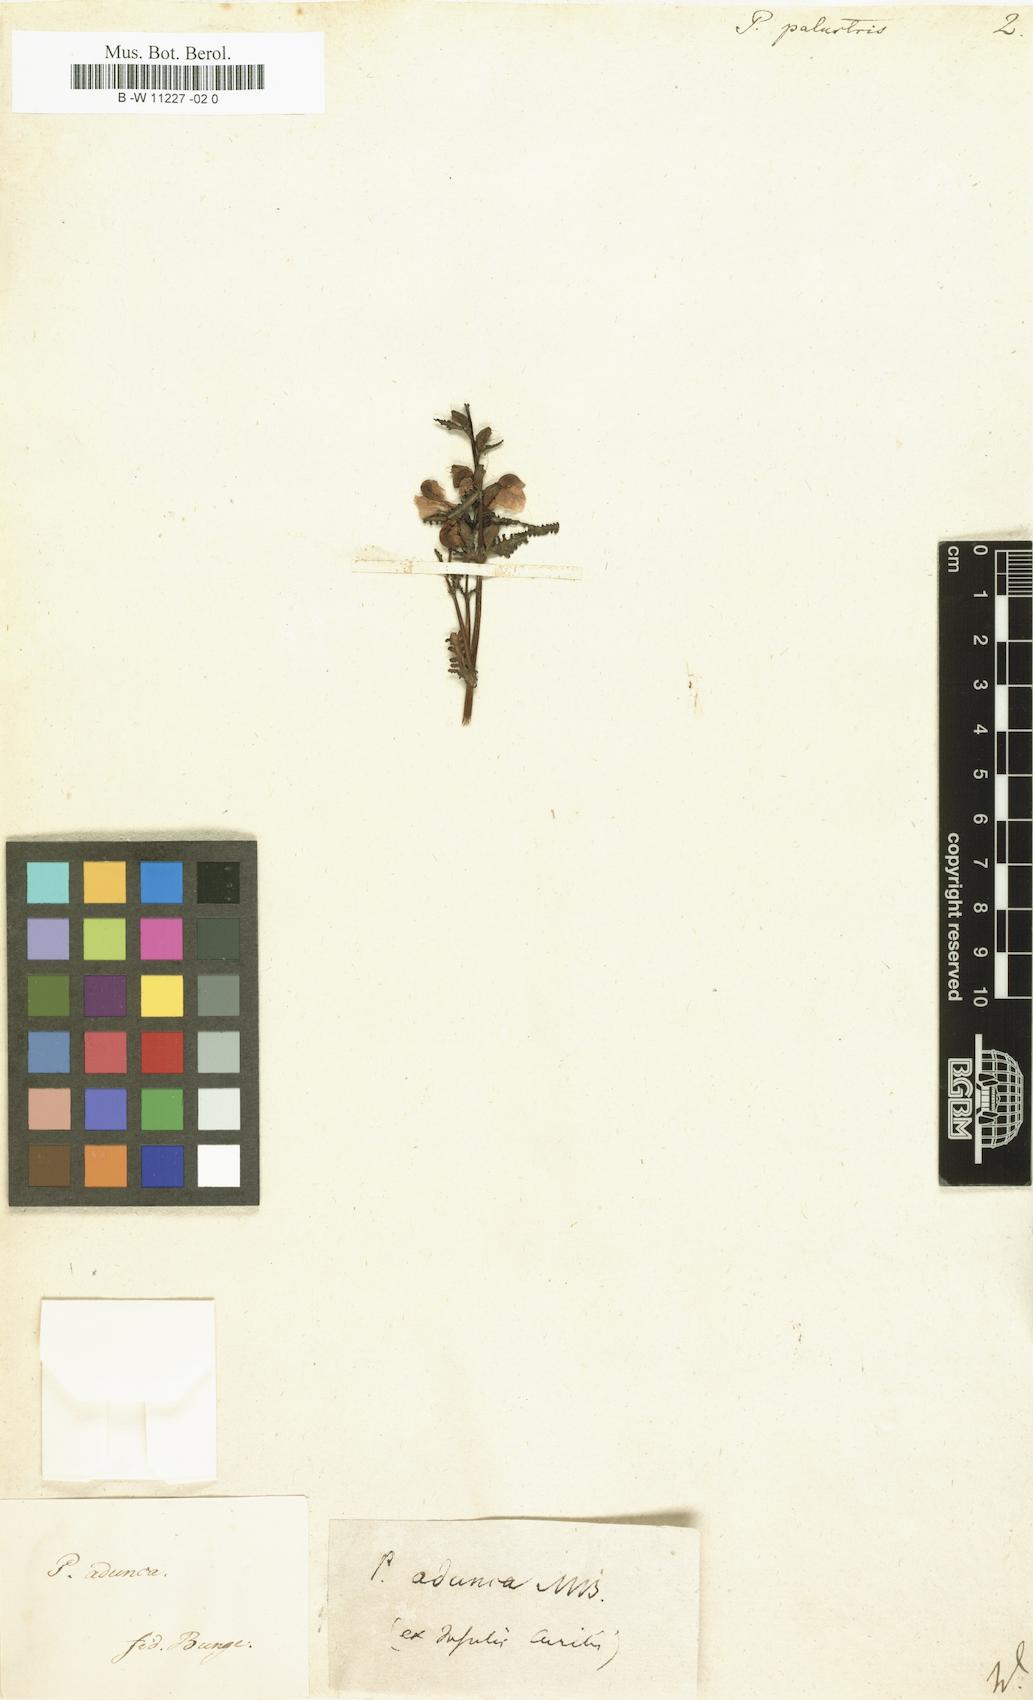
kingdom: Plantae
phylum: Tracheophyta
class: Magnoliopsida
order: Lamiales
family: Orobanchaceae
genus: Pedicularis
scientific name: Pedicularis palustris
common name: Marsh lousewort
